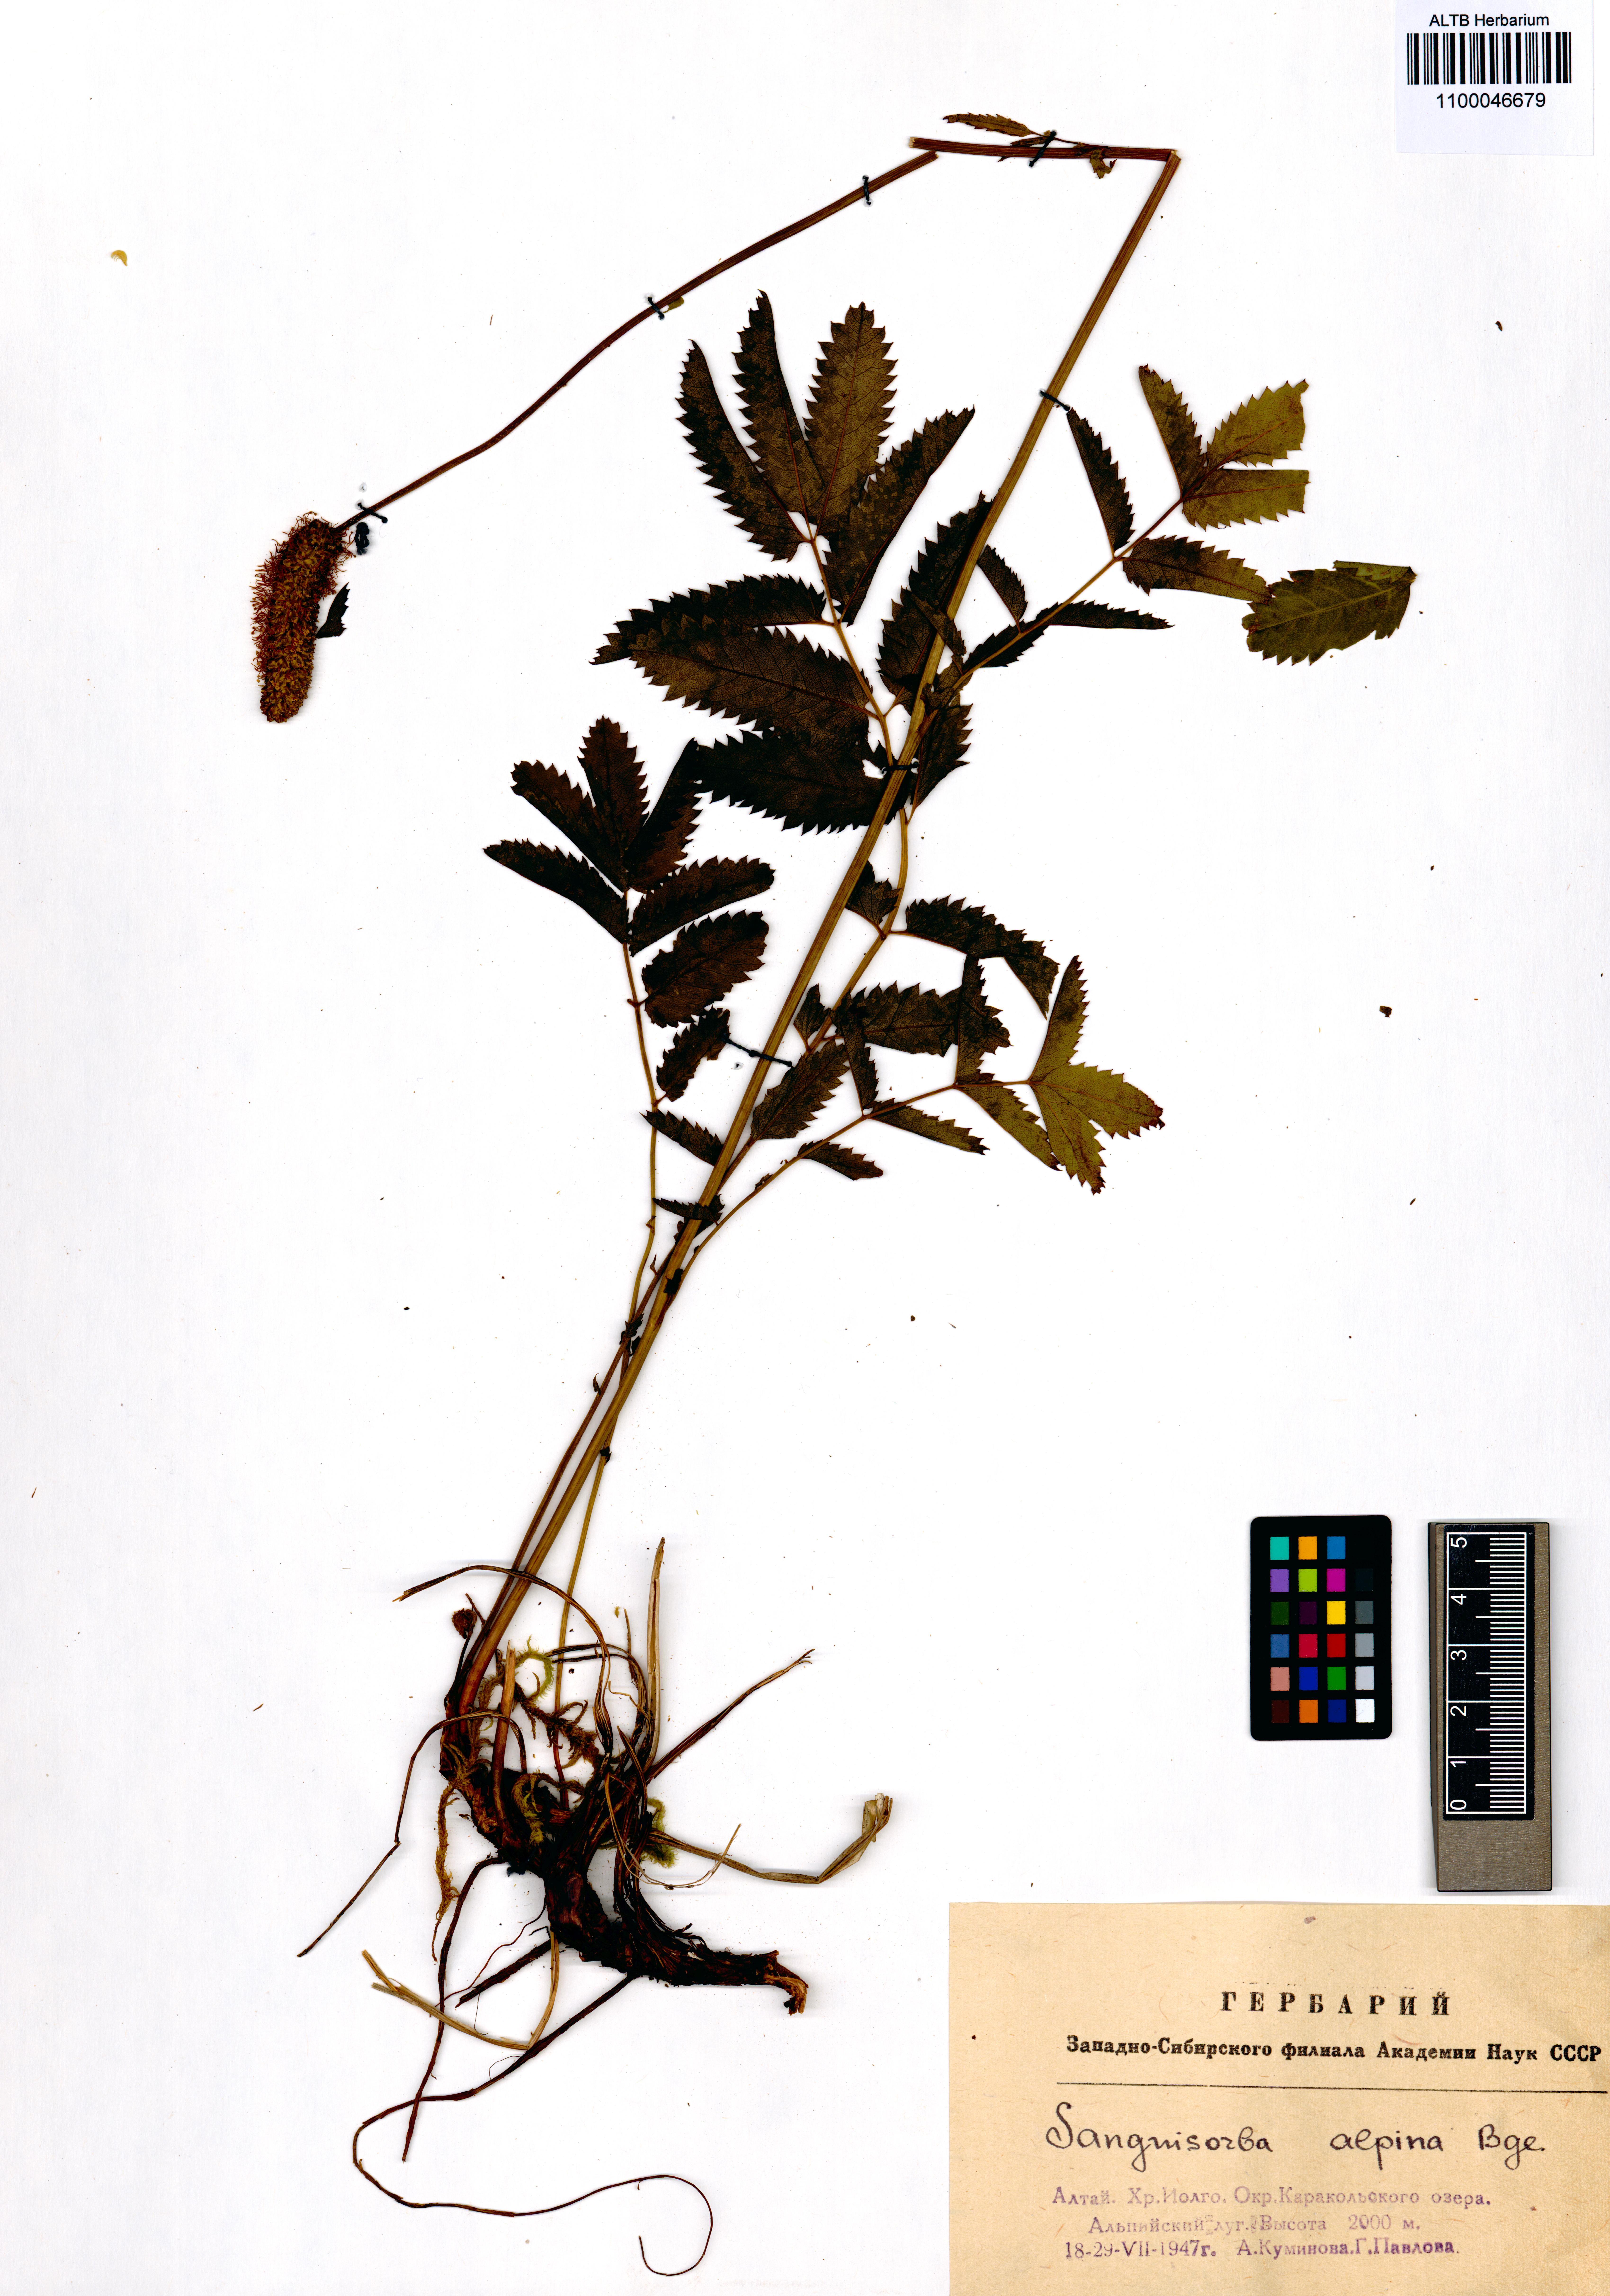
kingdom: Plantae
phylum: Tracheophyta
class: Magnoliopsida
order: Rosales
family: Rosaceae
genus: Sanguisorba
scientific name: Sanguisorba alpina
